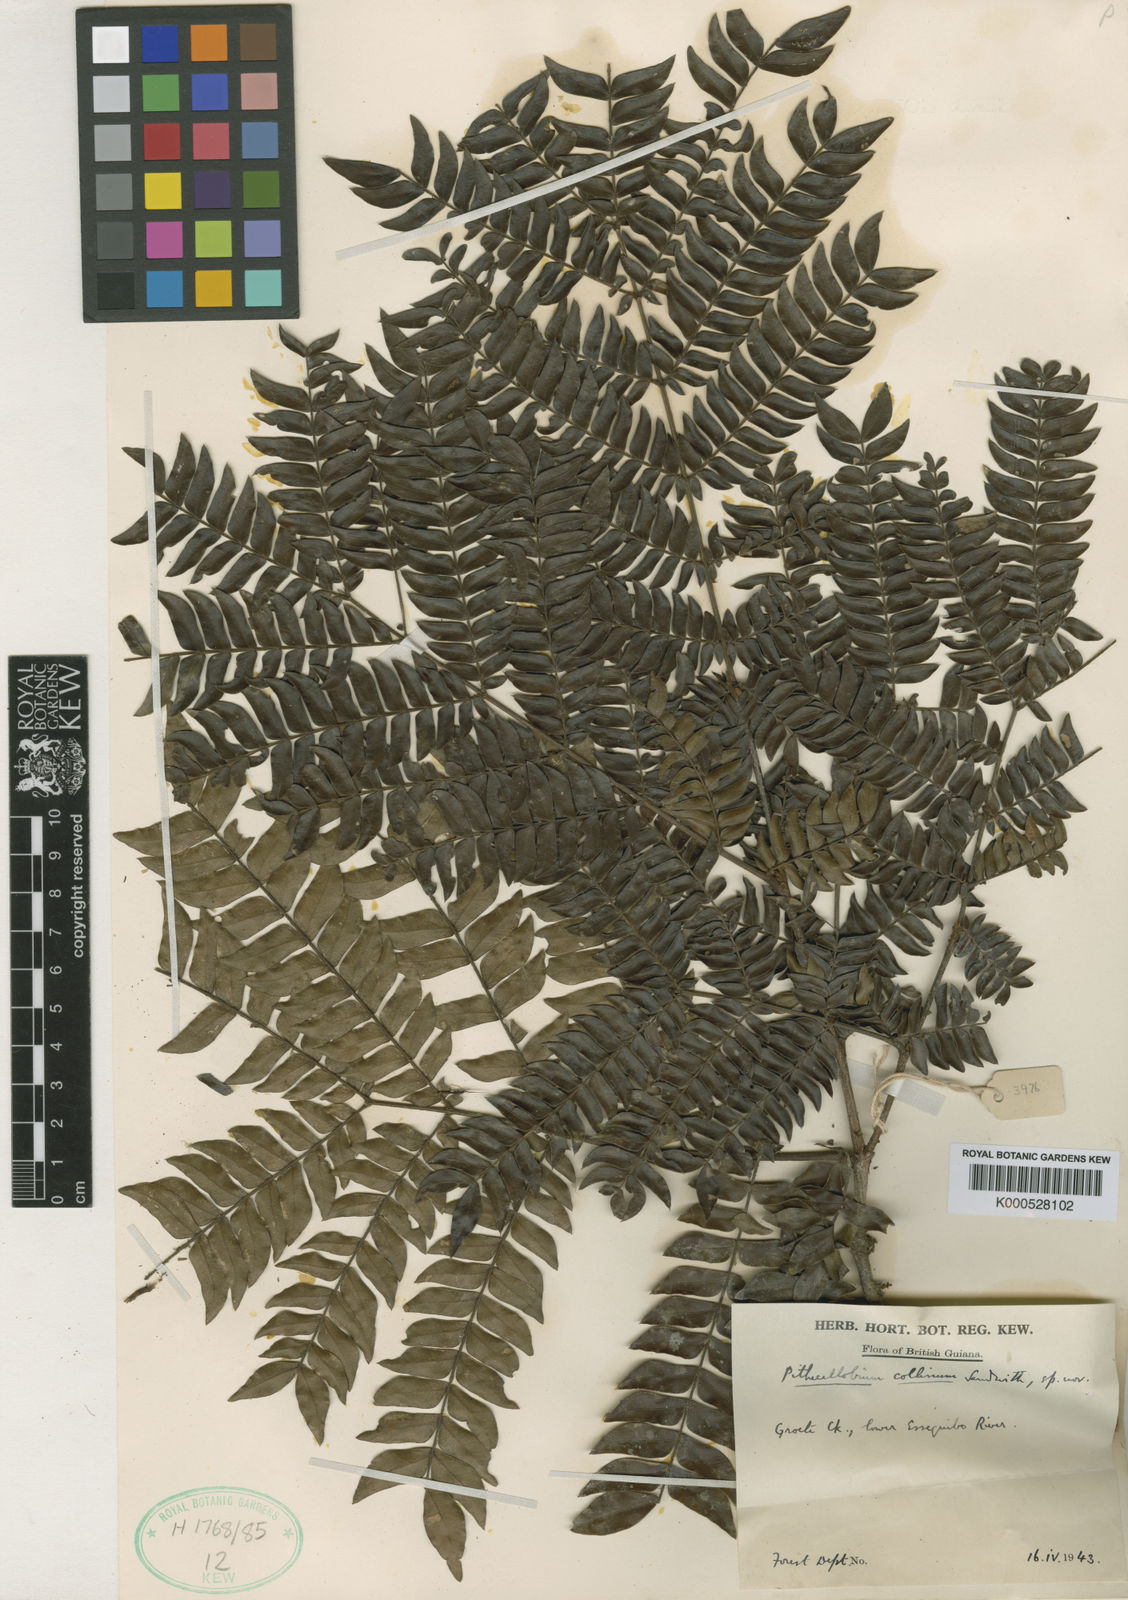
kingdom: Plantae
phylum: Tracheophyta
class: Magnoliopsida
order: Fabales
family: Fabaceae
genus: Zygia
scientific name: Zygia collina
